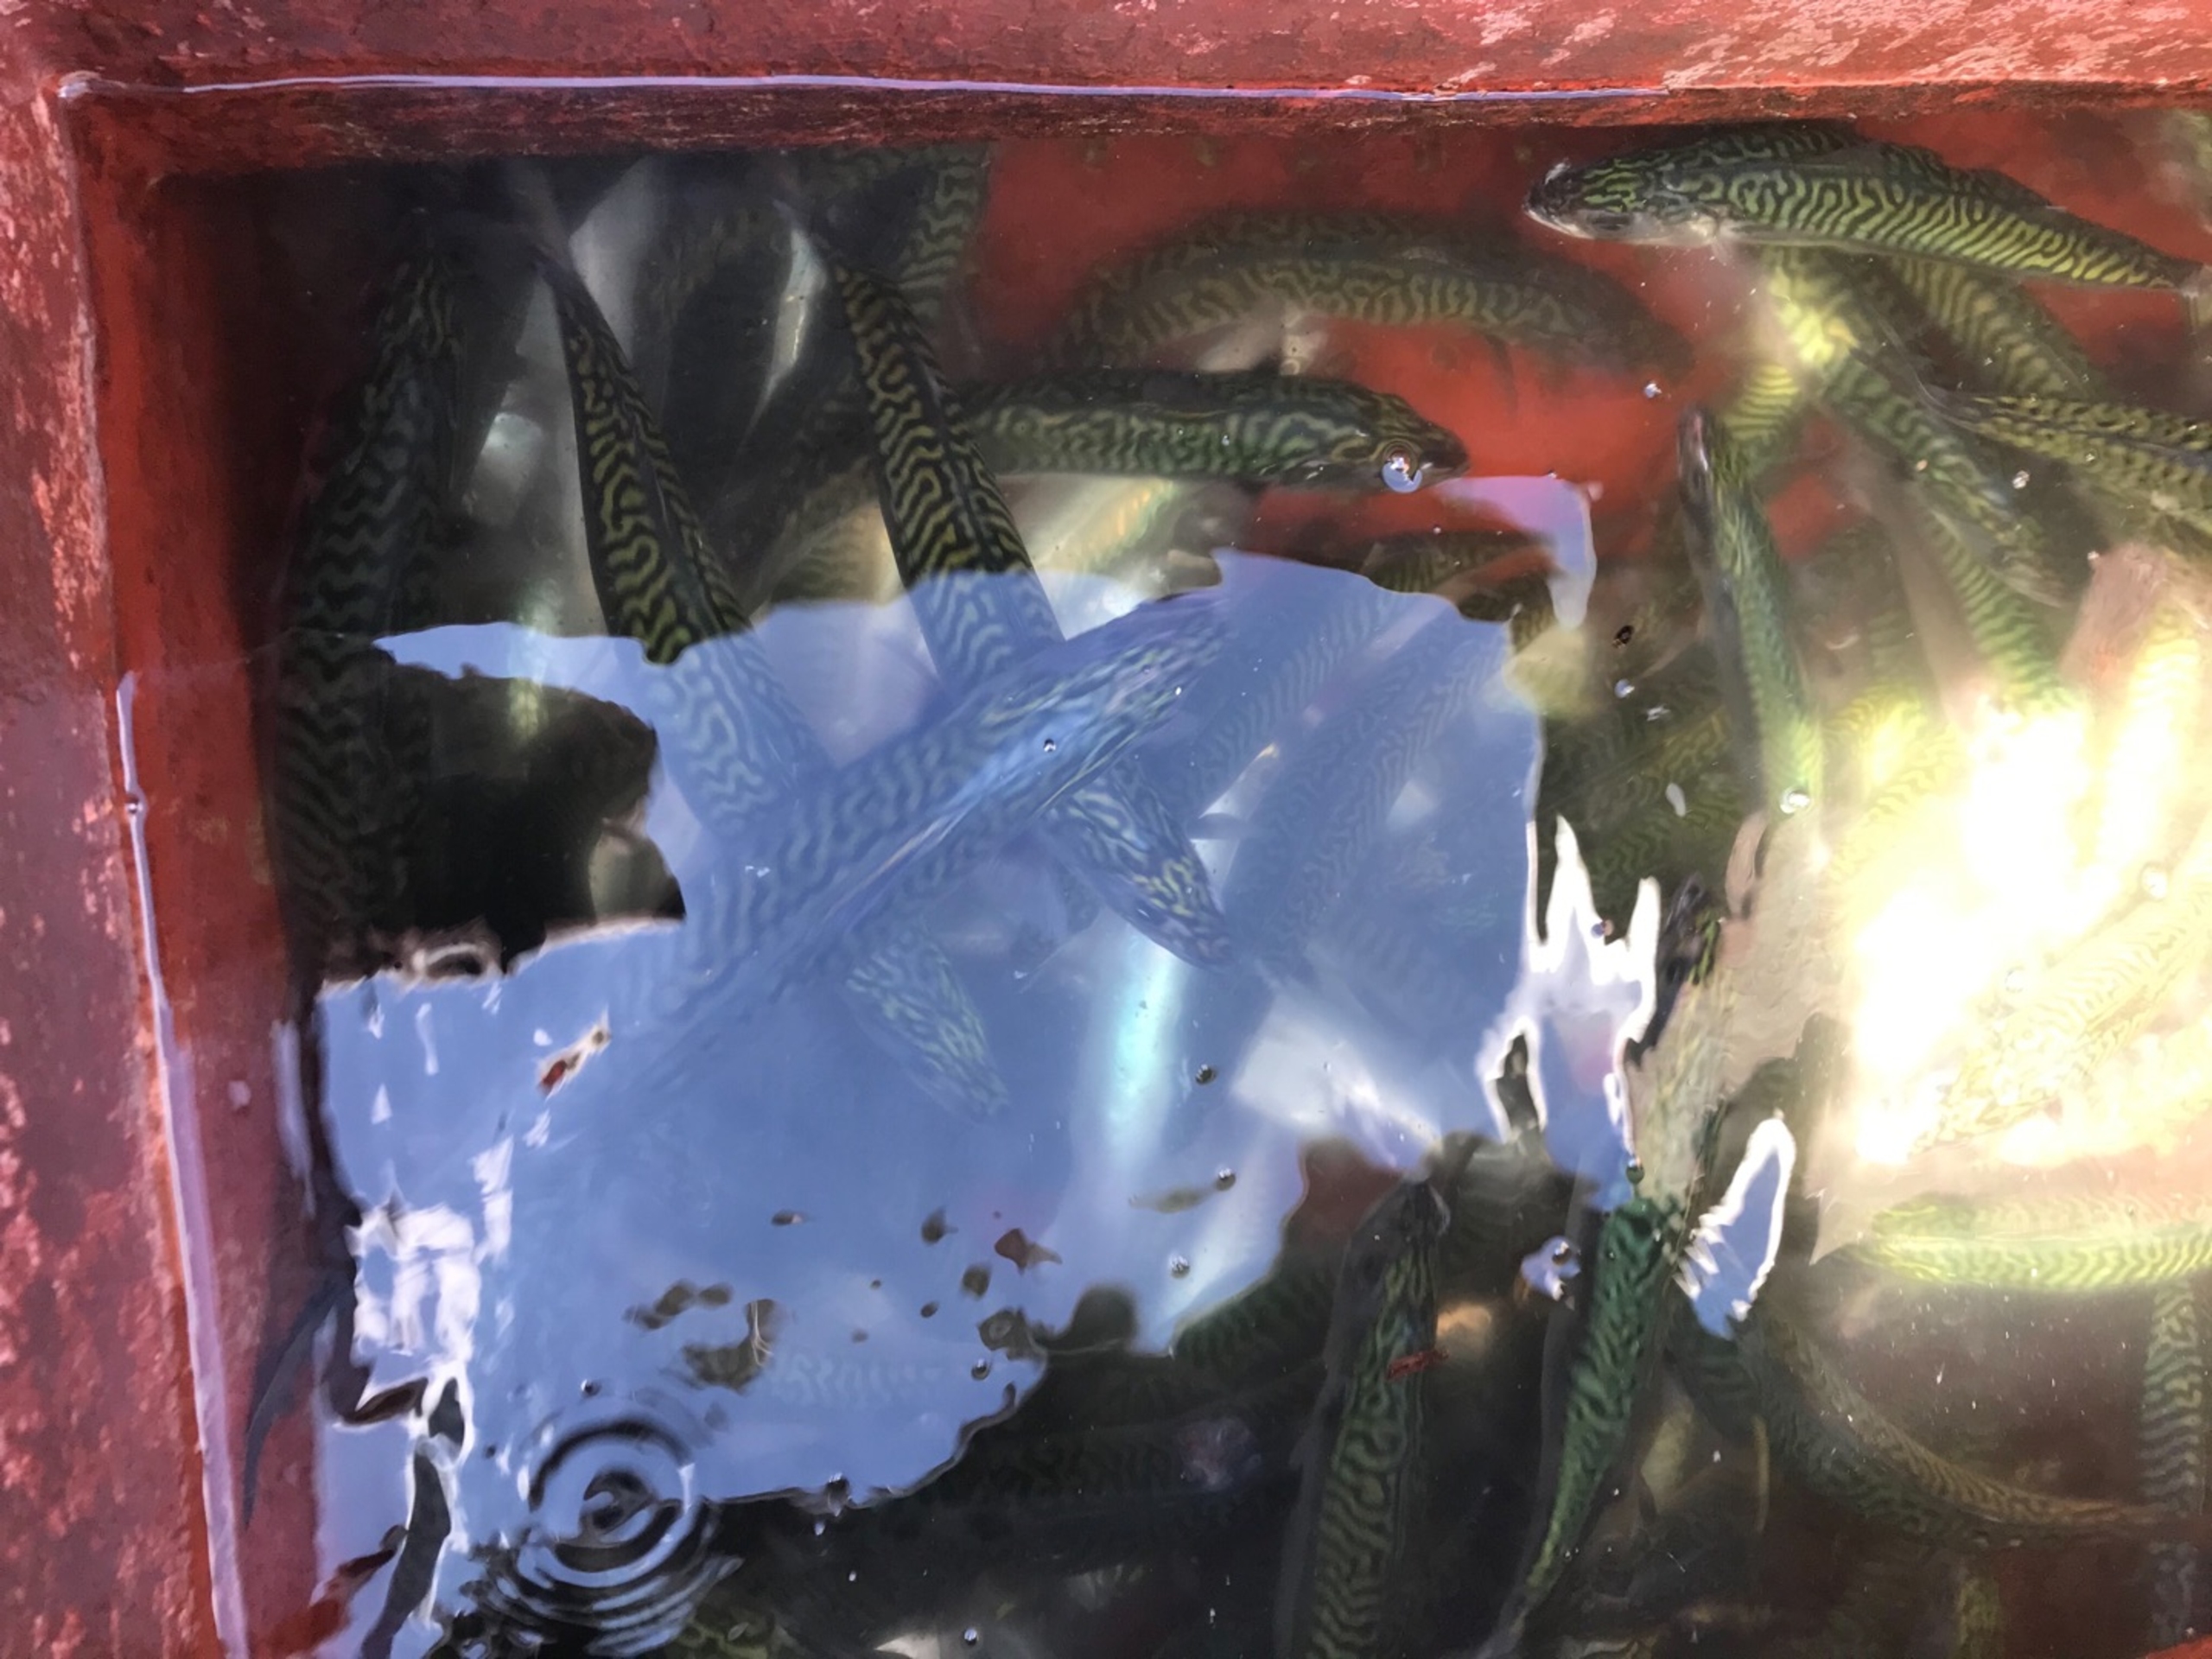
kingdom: Animalia
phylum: Chordata
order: Perciformes
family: Scombridae
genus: Scomber
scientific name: Scomber scombrus
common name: Makrel
